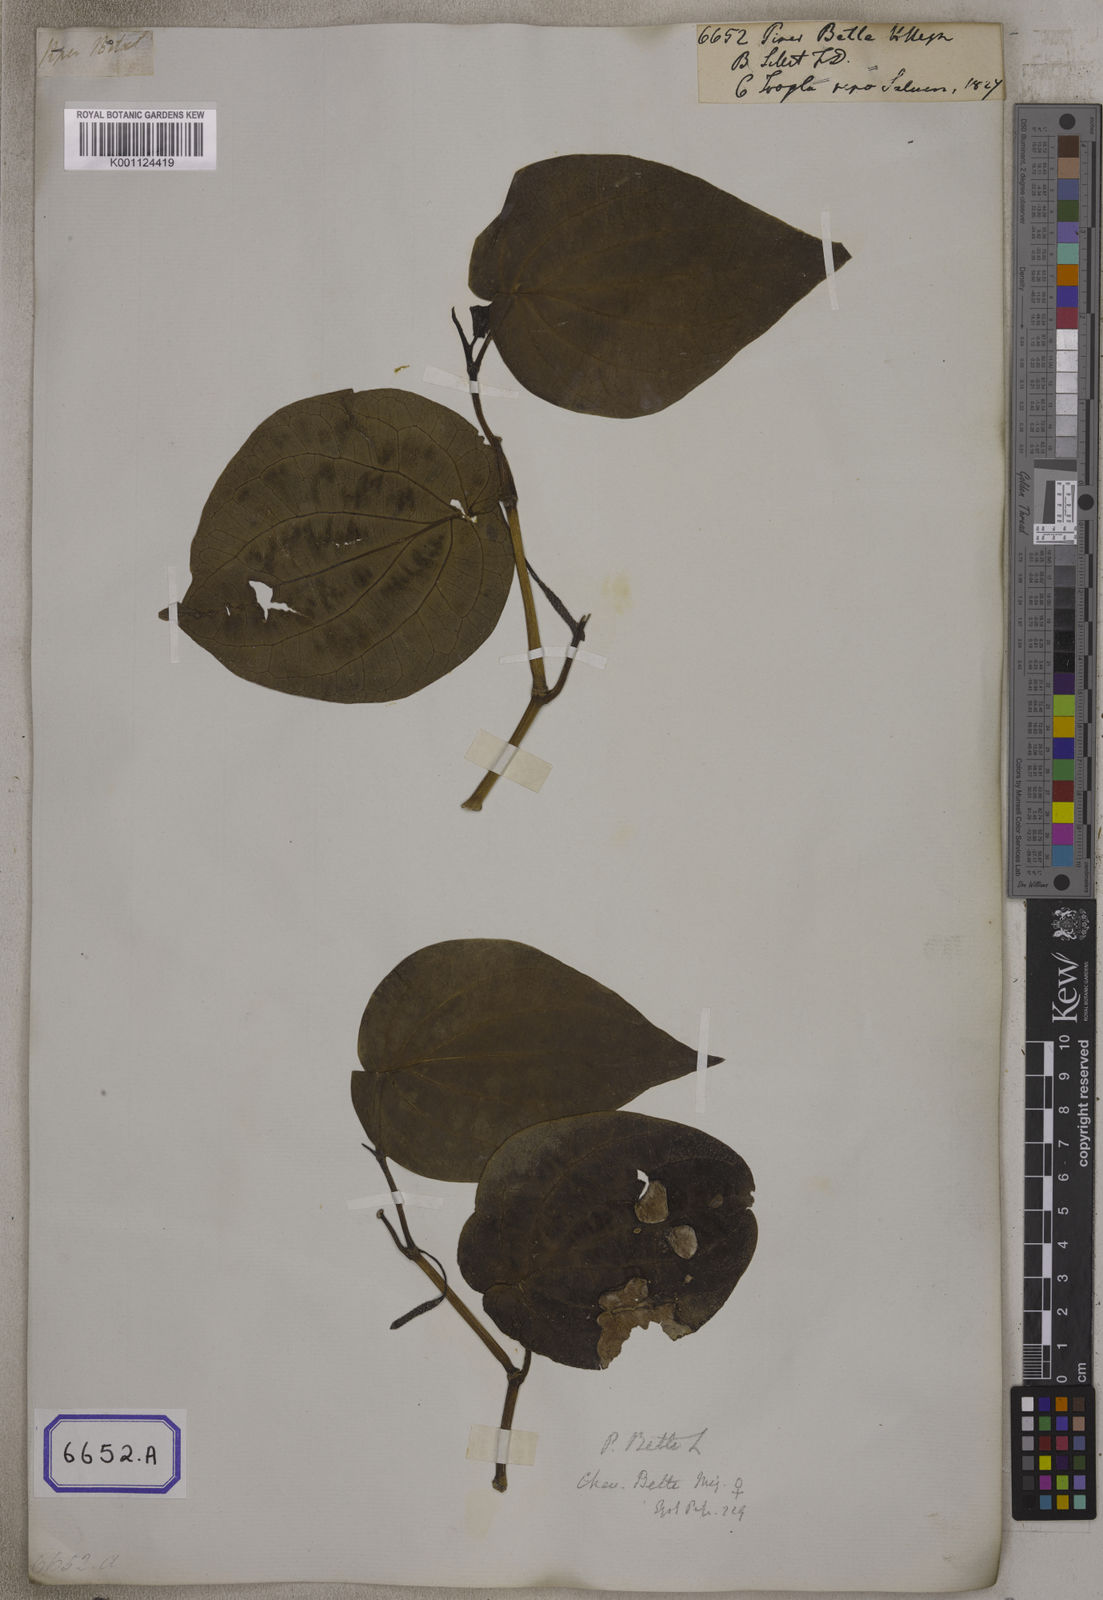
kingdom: Plantae
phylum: Tracheophyta
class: Magnoliopsida
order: Piperales
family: Piperaceae
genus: Piper
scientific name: Piper betle
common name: Betel pepper
